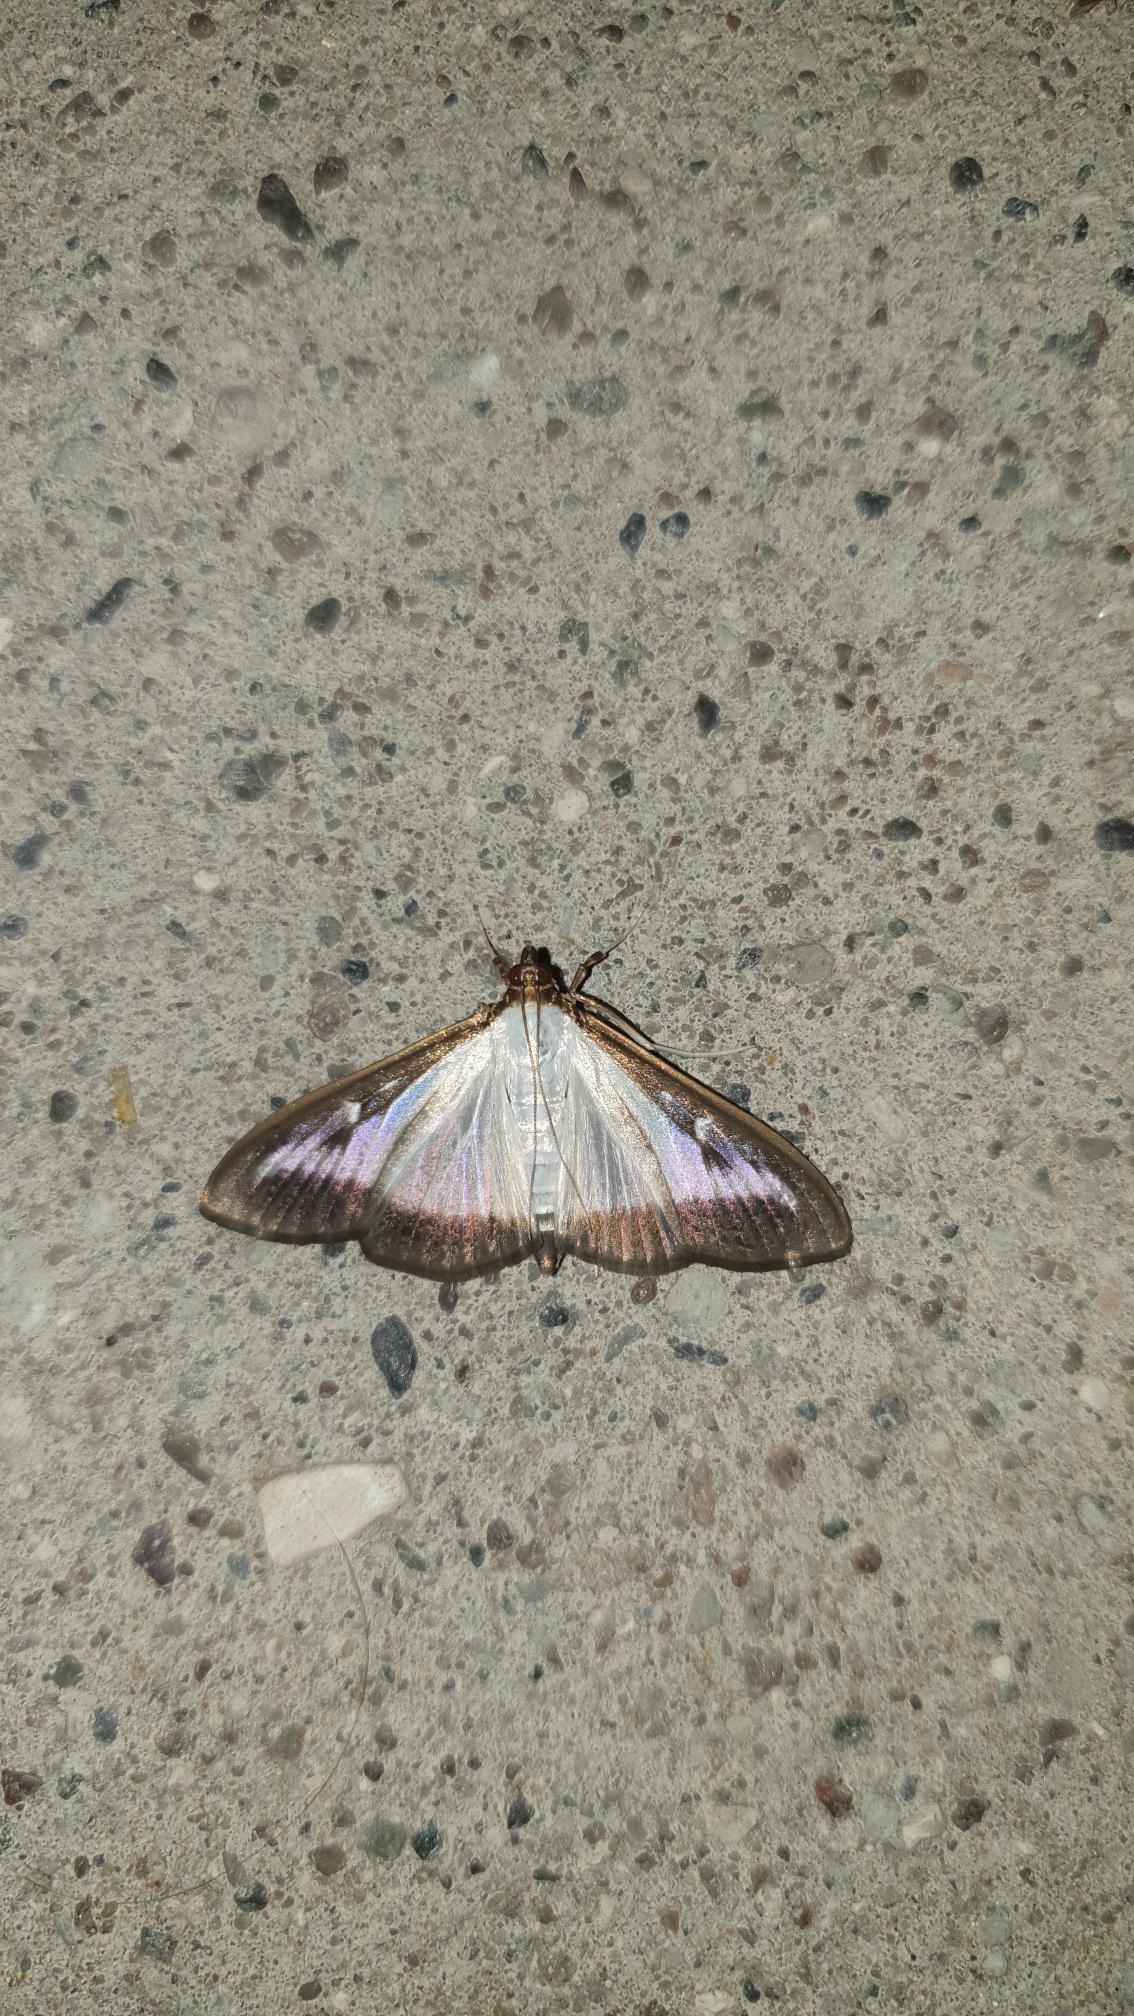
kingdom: Animalia
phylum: Arthropoda
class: Insecta
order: Lepidoptera
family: Crambidae
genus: Cydalima
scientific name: Cydalima perspectalis
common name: Buksbomhalvmøl
